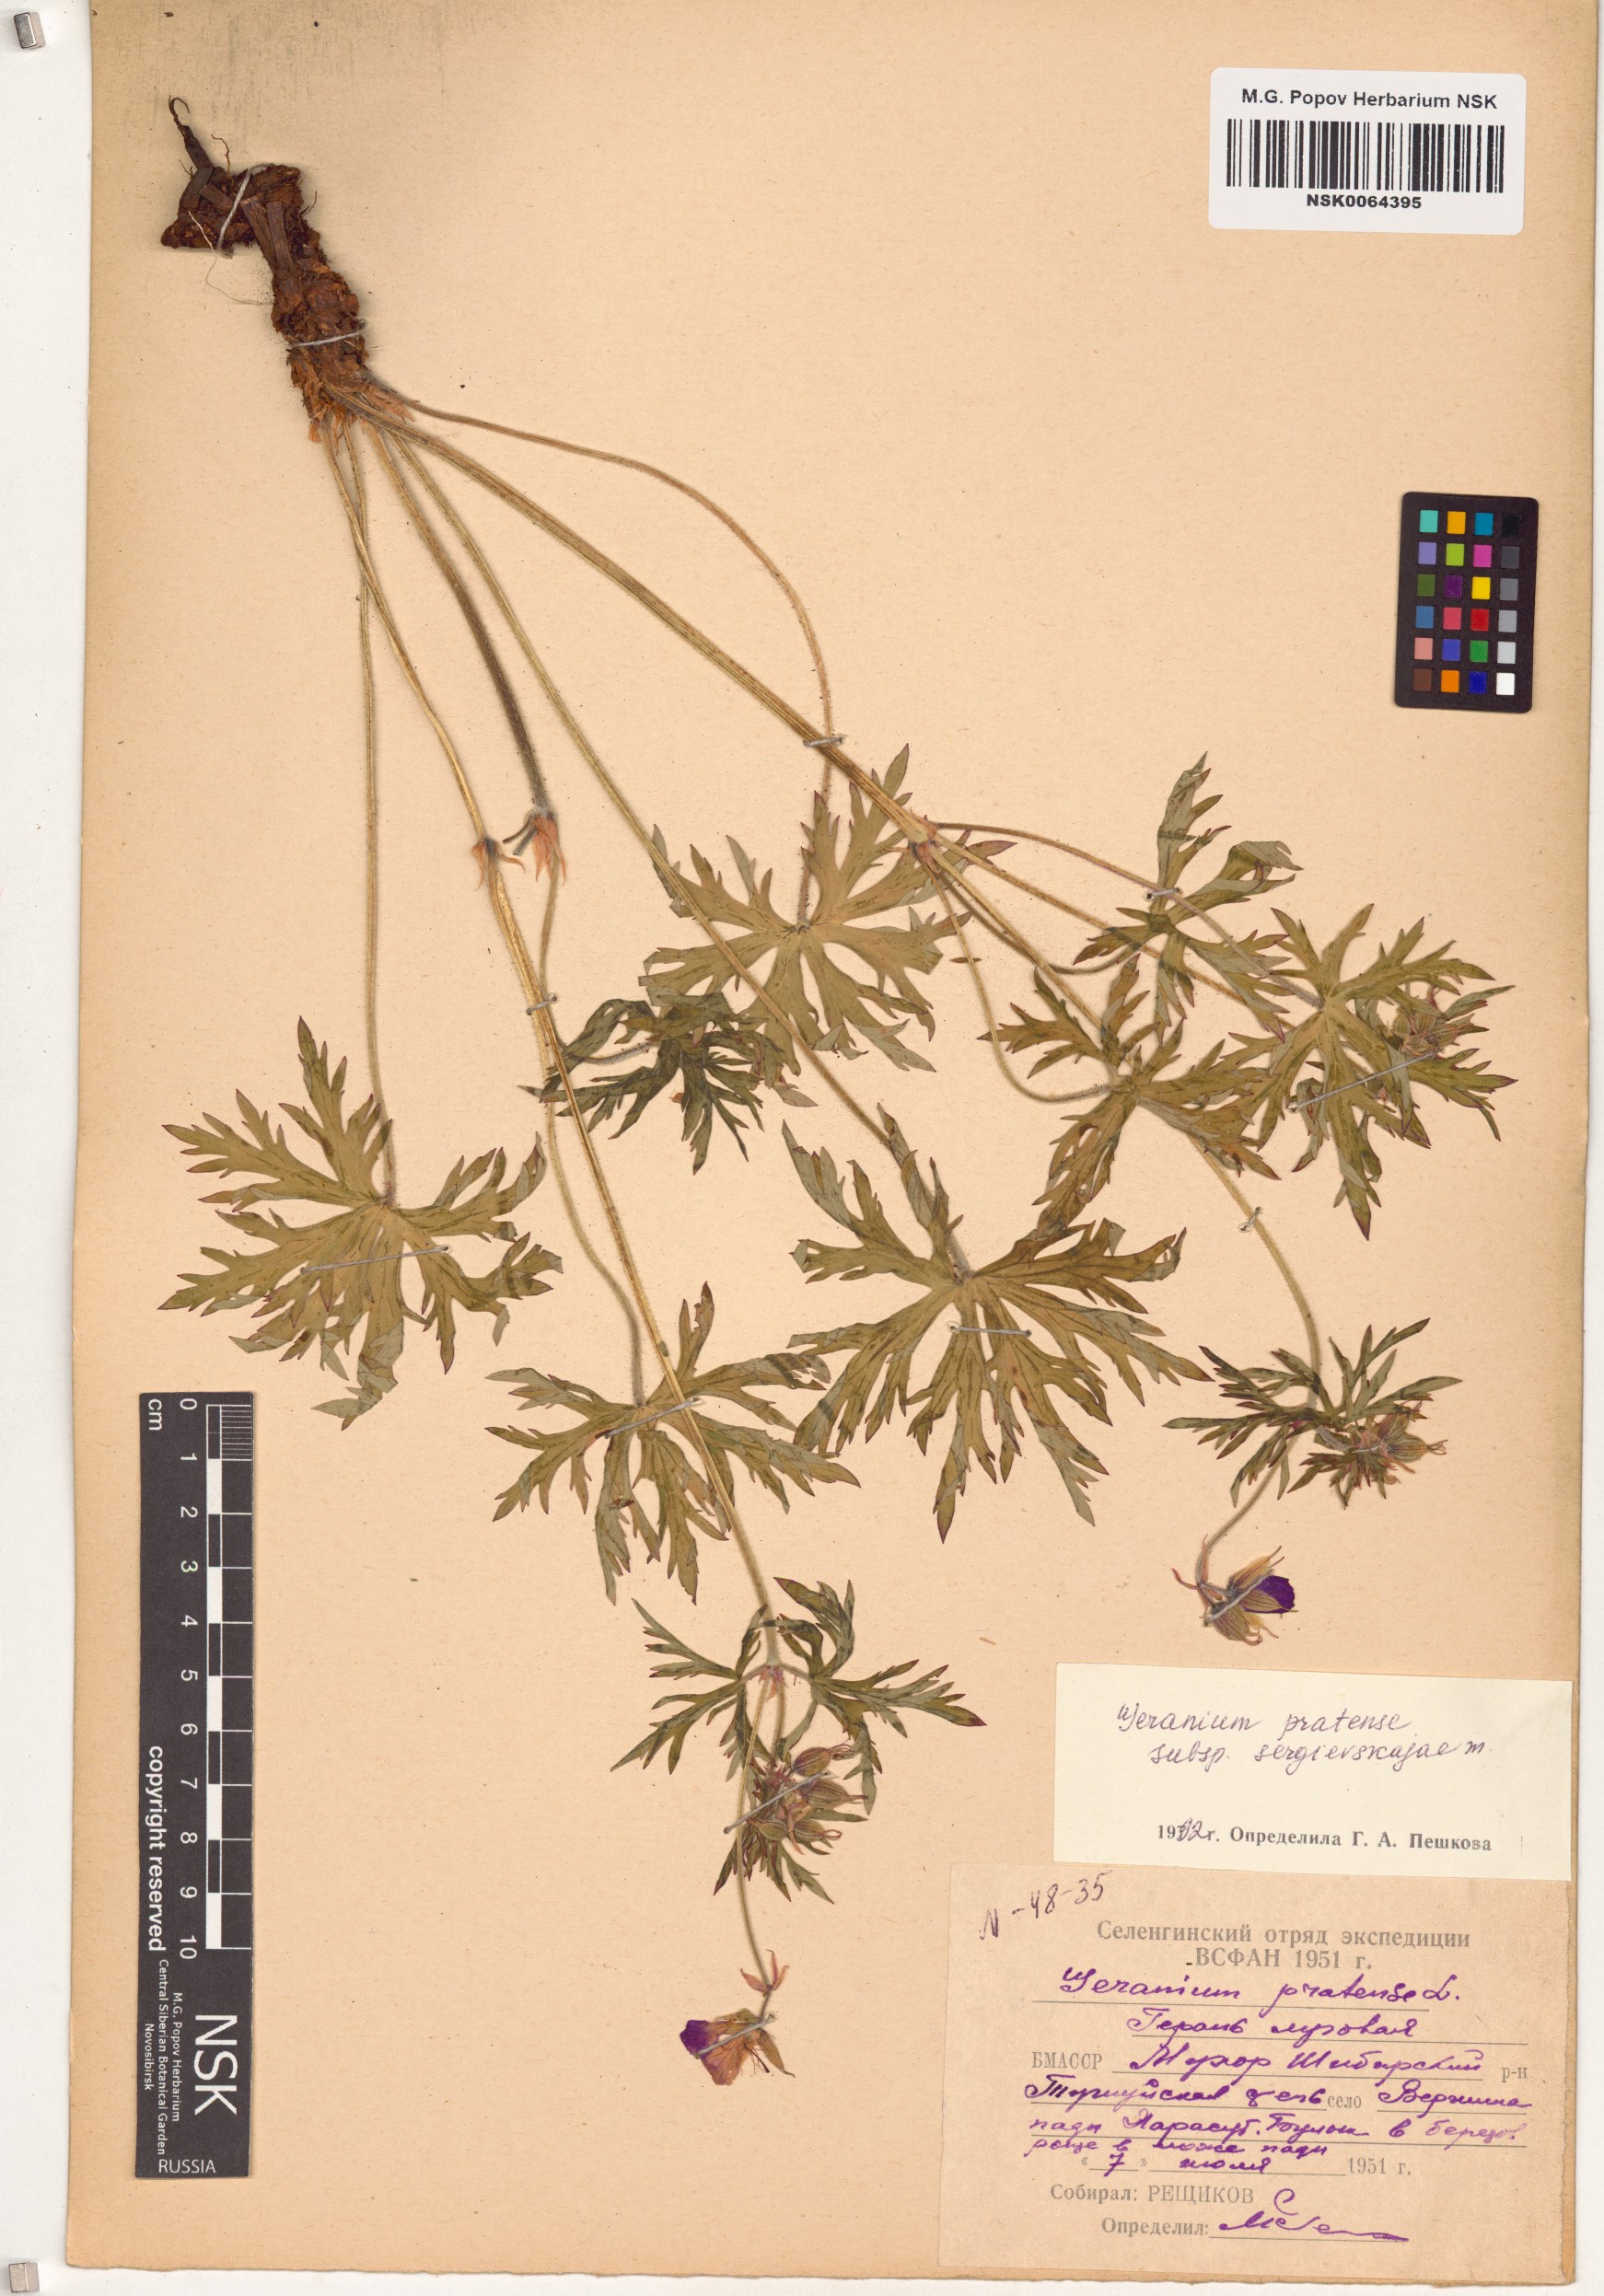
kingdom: Plantae
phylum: Tracheophyta
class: Magnoliopsida
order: Geraniales
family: Geraniaceae
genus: Geranium
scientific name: Geranium pratense
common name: Meadow crane's-bill
